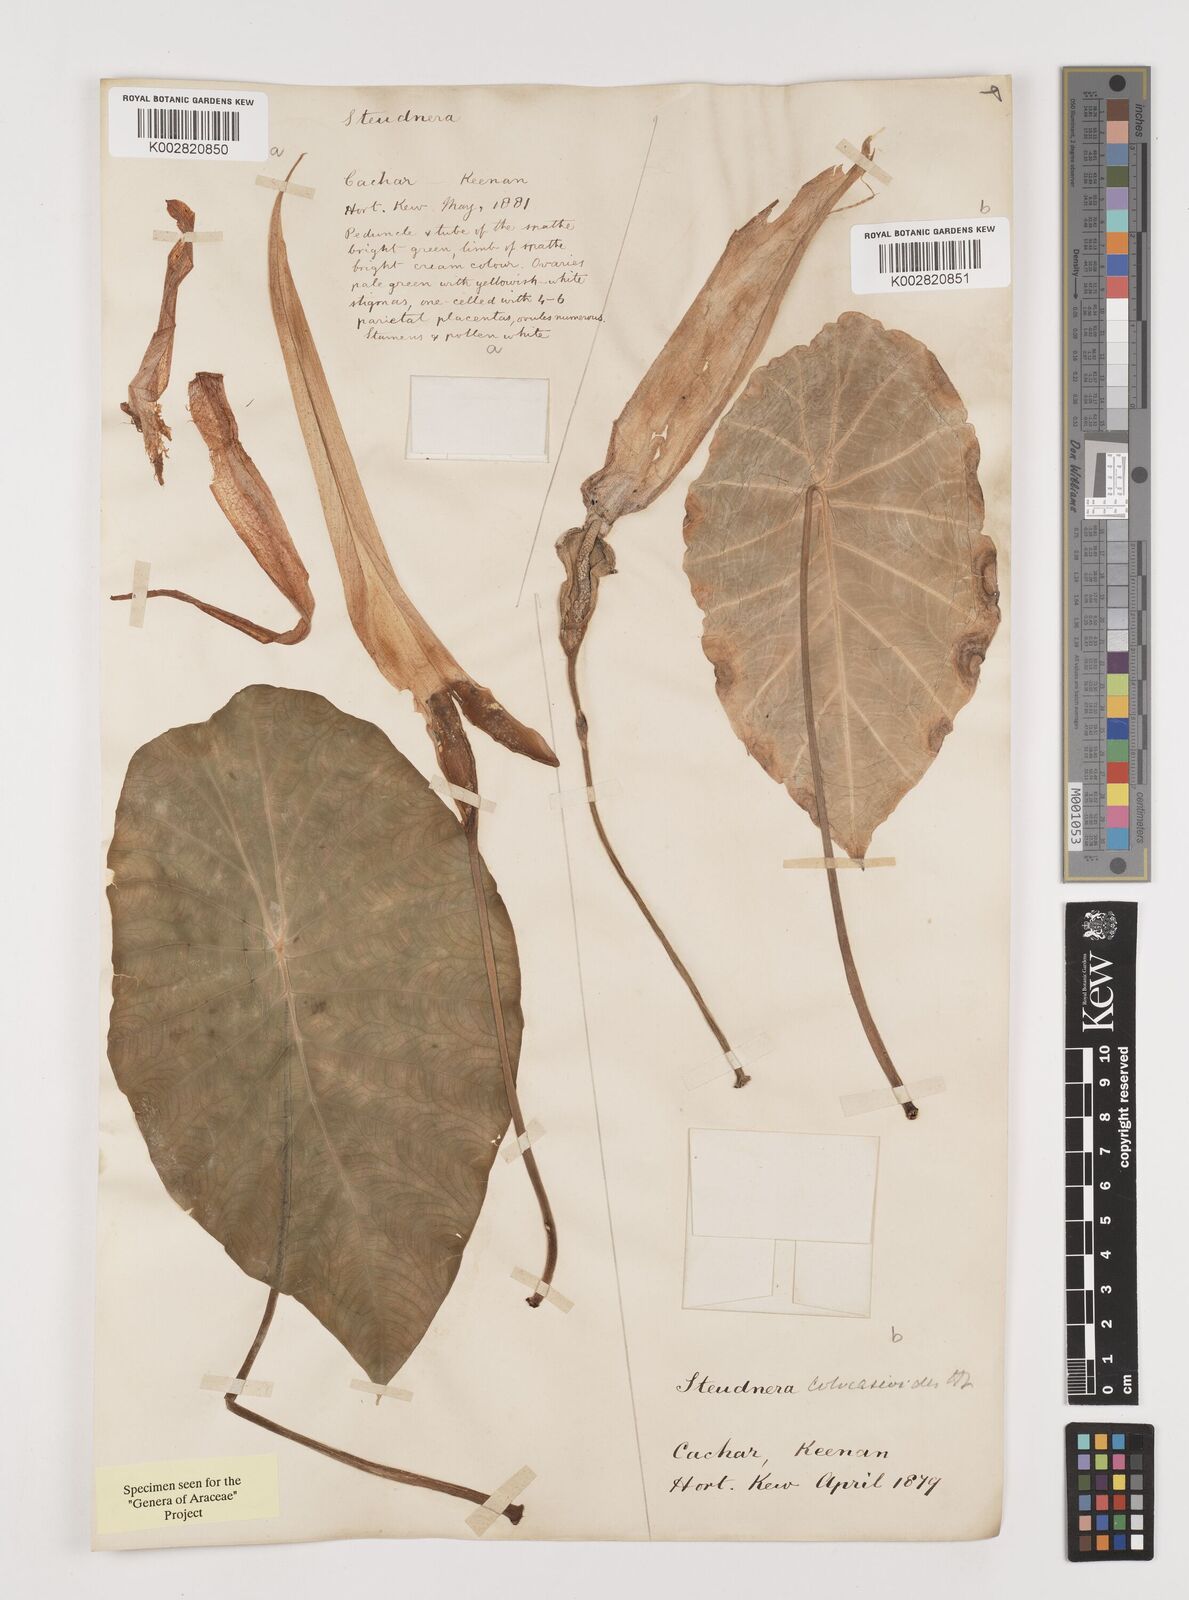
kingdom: Plantae
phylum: Tracheophyta
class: Liliopsida
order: Alismatales
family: Araceae
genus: Steudnera
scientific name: Steudnera colocasiifolia
